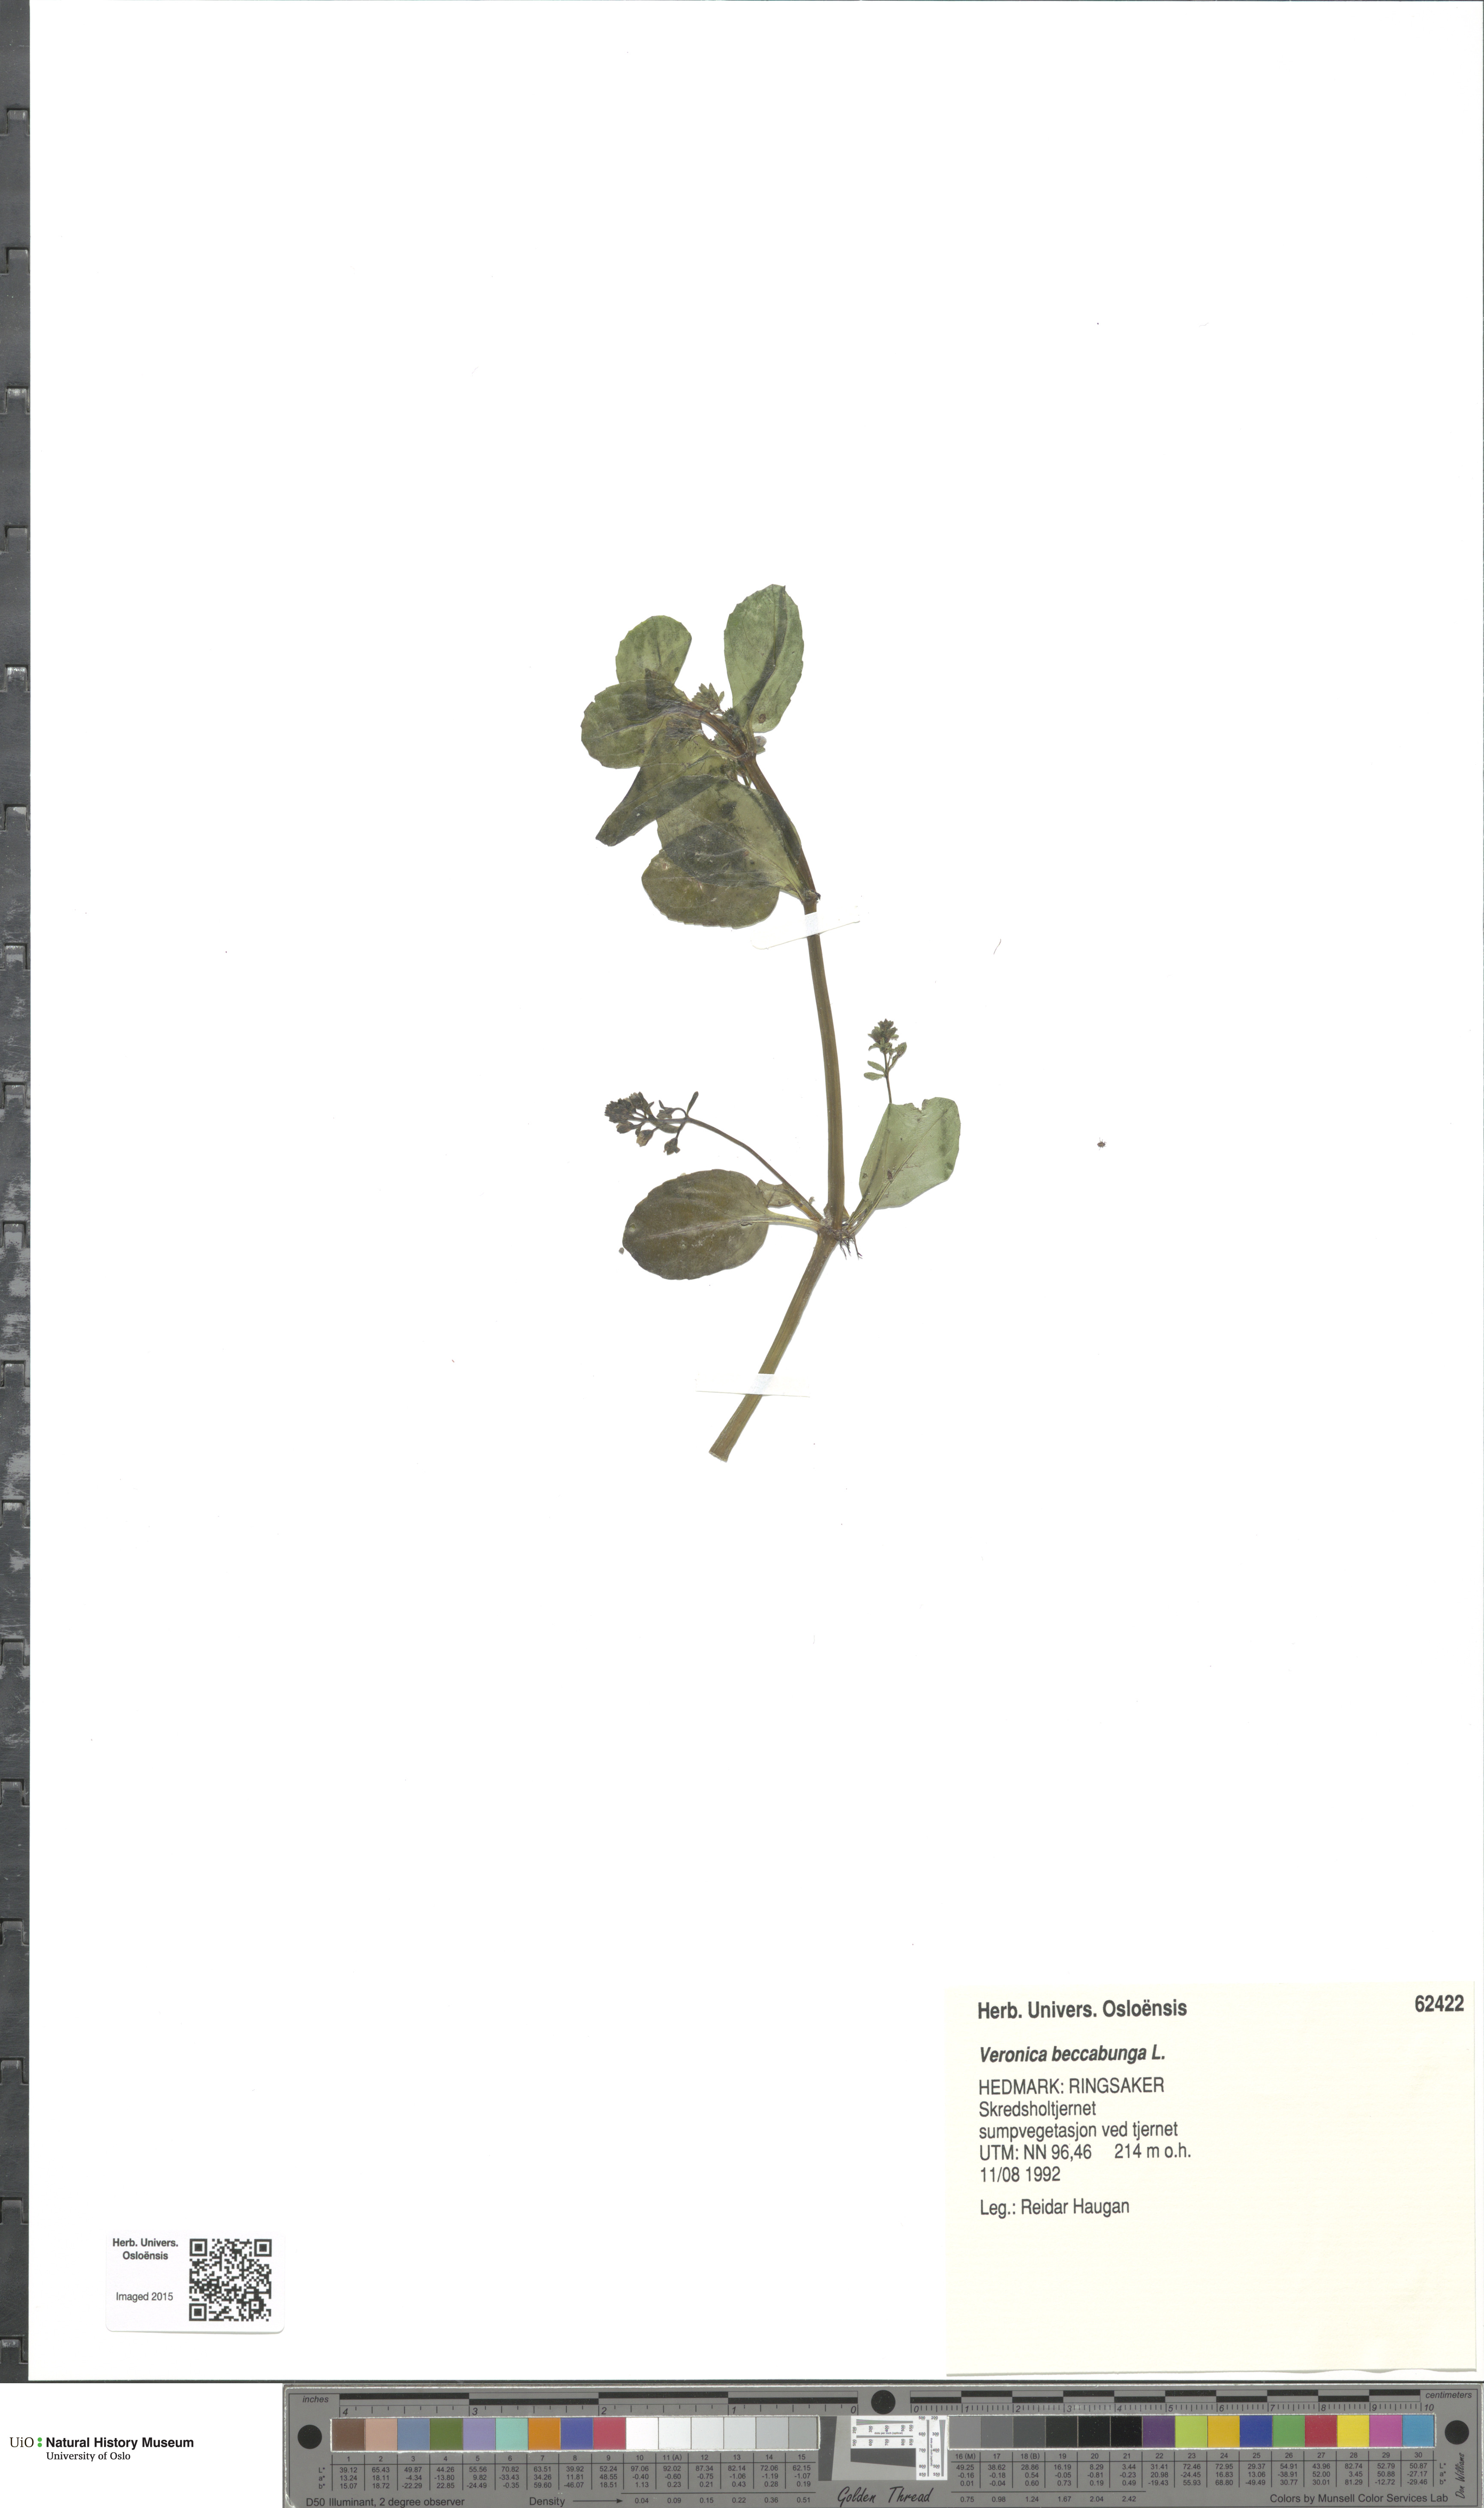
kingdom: Plantae
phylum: Tracheophyta
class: Magnoliopsida
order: Lamiales
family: Plantaginaceae
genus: Veronica
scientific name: Veronica beccabunga
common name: Brooklime
